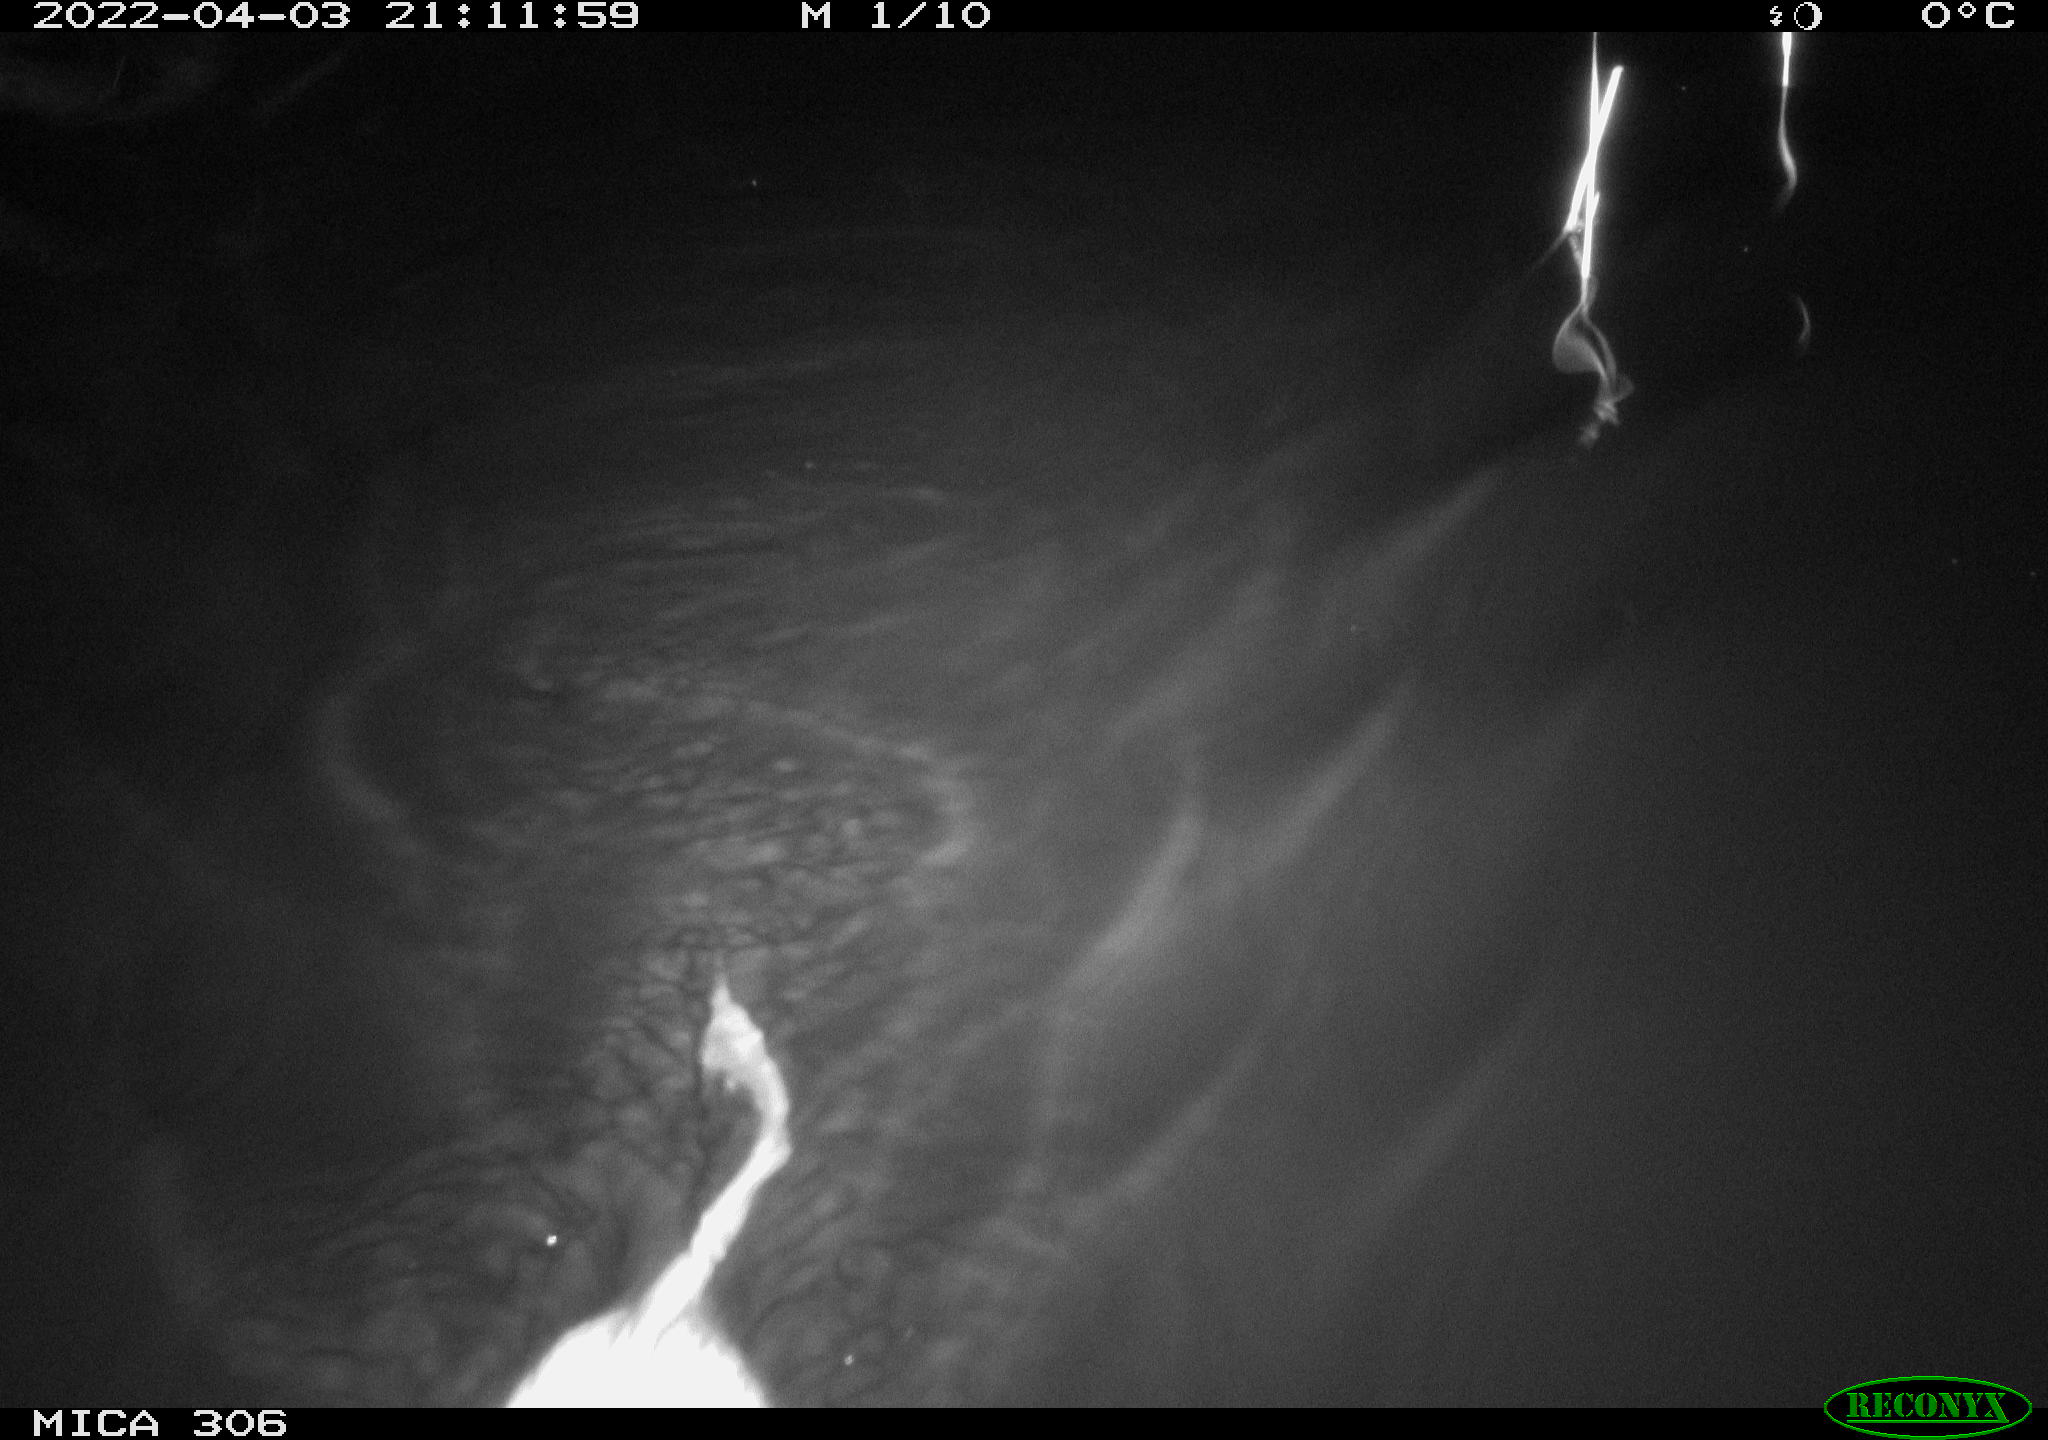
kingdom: Animalia
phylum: Chordata
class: Mammalia
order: Rodentia
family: Cricetidae
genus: Ondatra
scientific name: Ondatra zibethicus
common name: Muskrat
